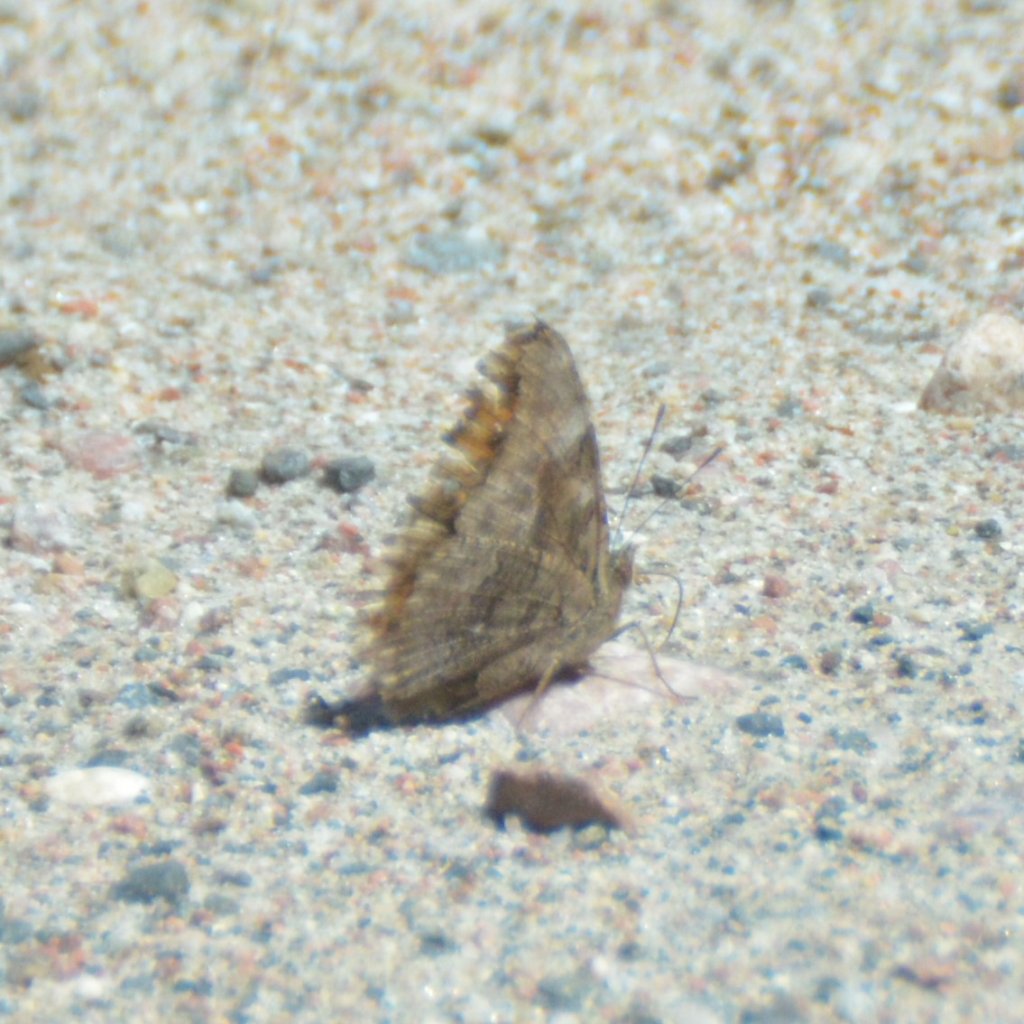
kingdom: Animalia
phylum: Arthropoda
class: Insecta
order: Lepidoptera
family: Nymphalidae
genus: Polygonia
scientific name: Polygonia vaualbum
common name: Compton Tortoiseshell
